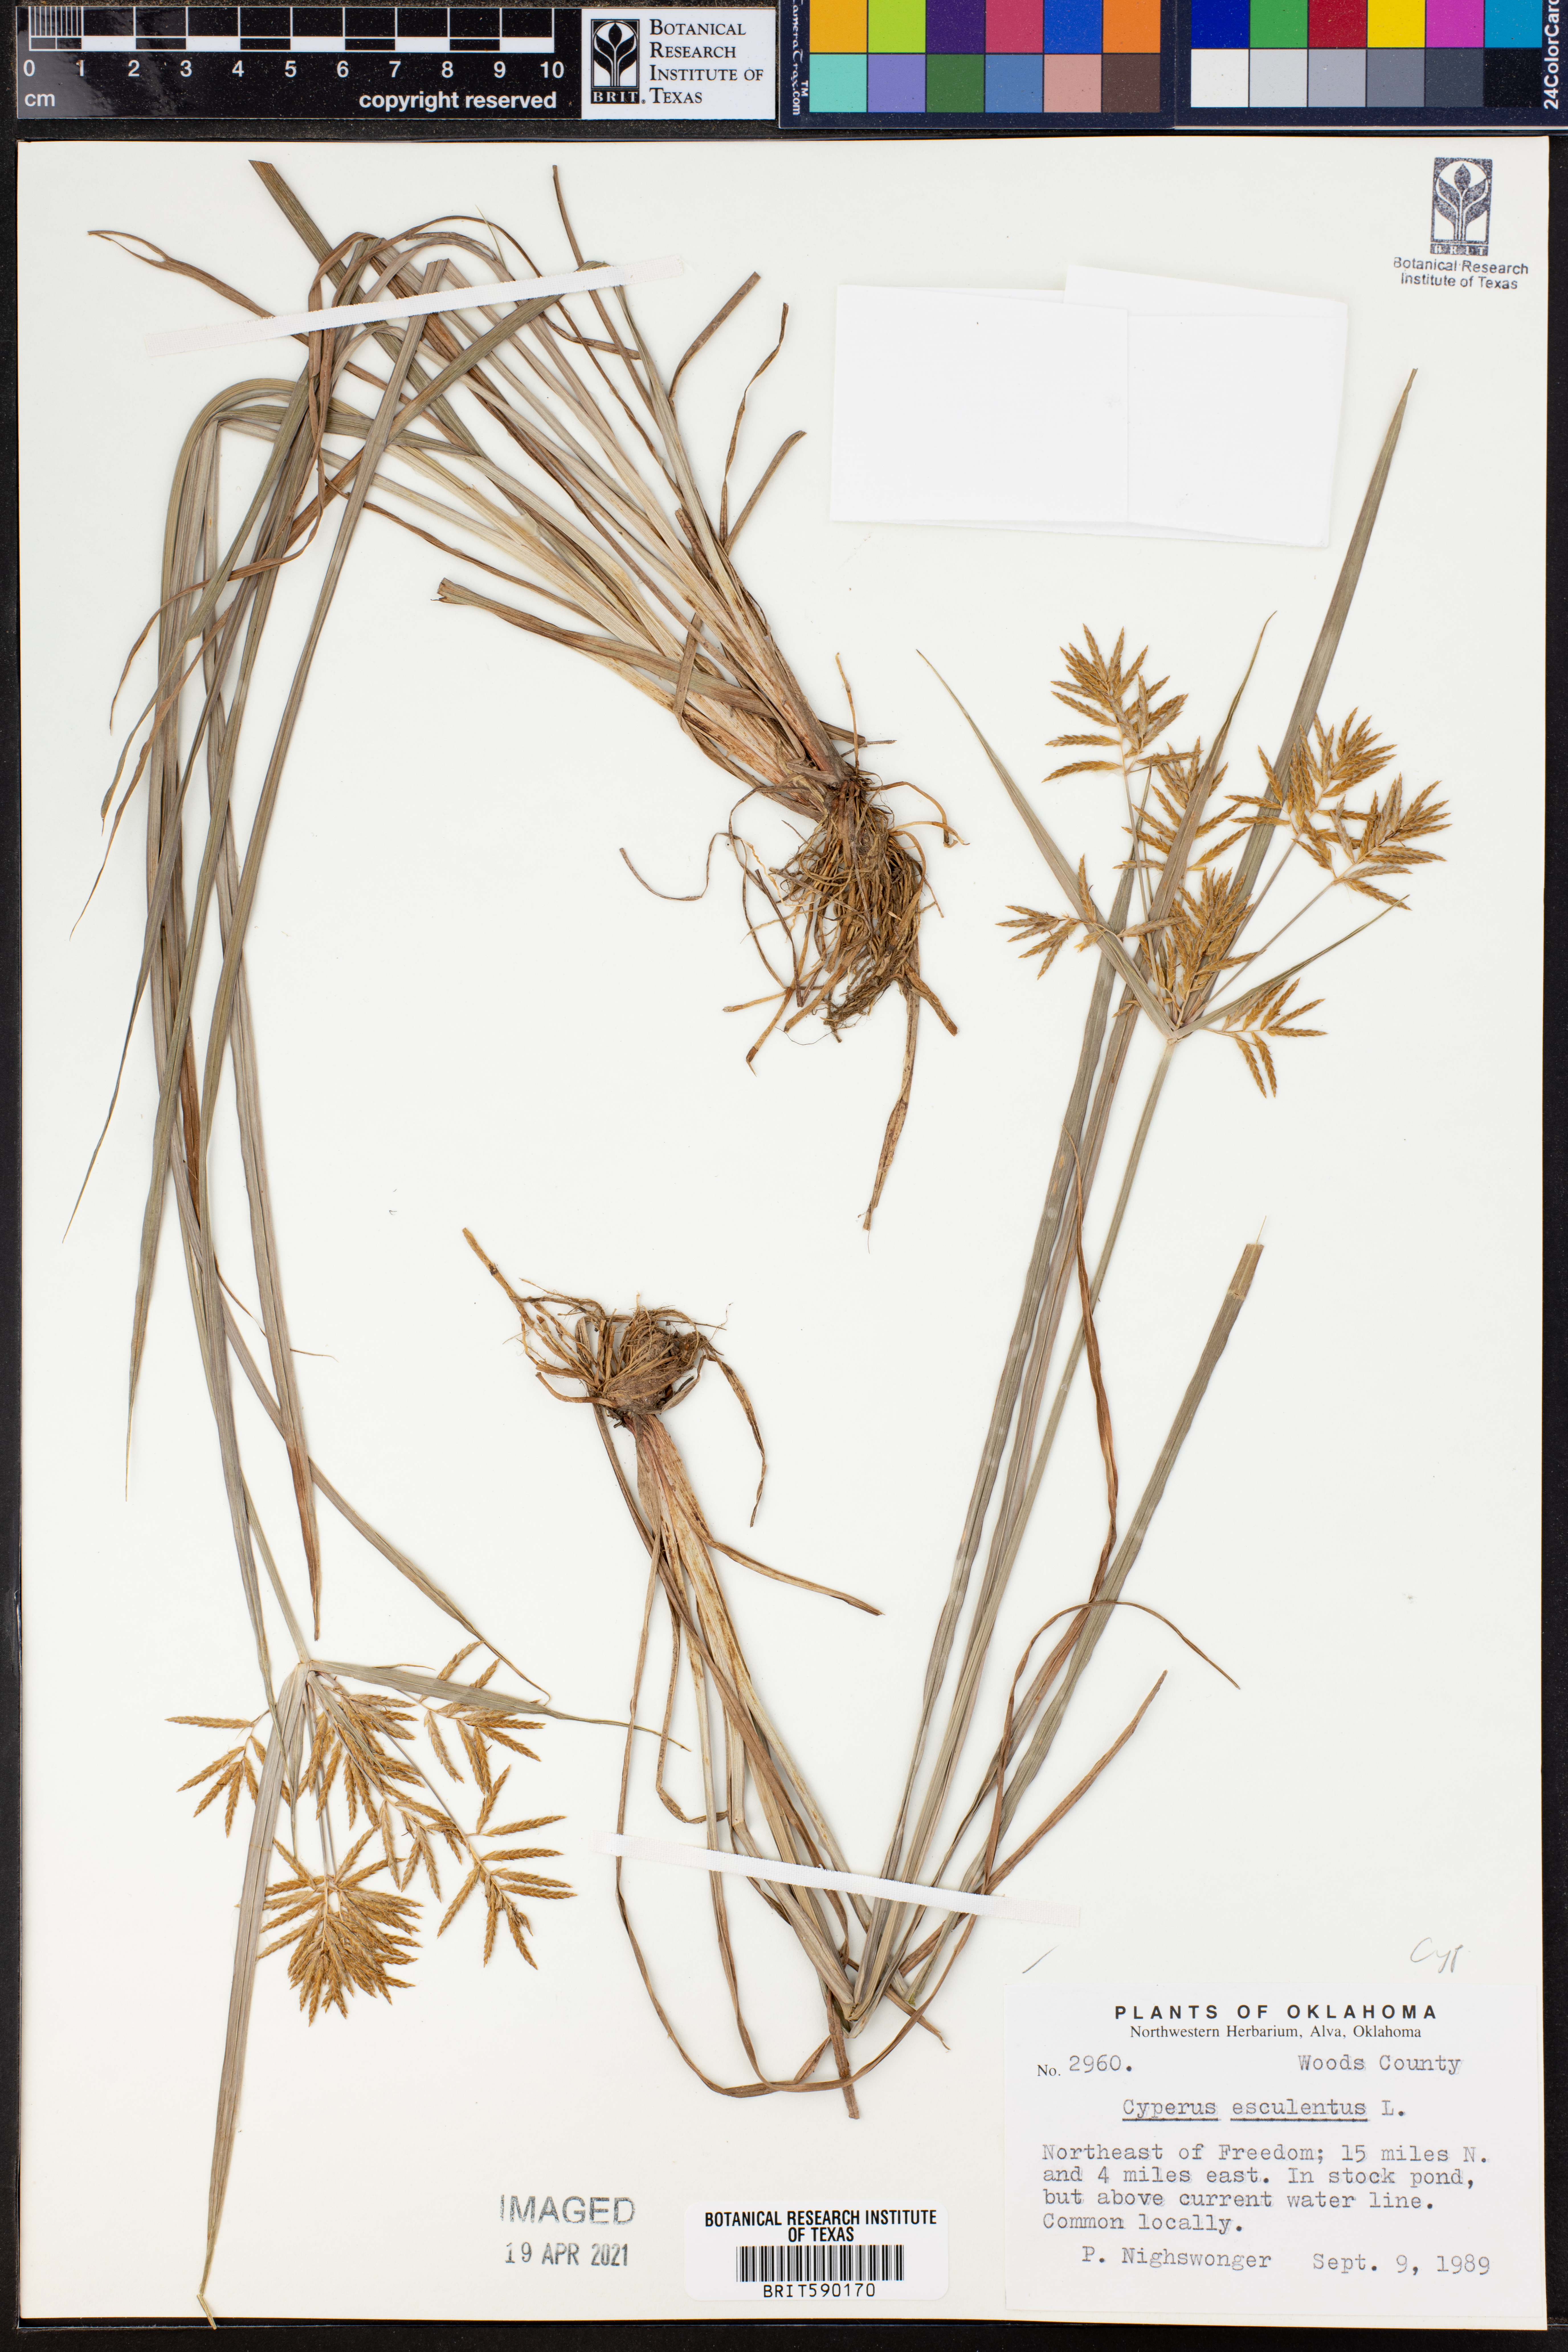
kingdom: Plantae
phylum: Tracheophyta
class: Liliopsida
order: Poales
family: Cyperaceae
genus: Cyperus
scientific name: Cyperus esculentus
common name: Yellow nutsedge
